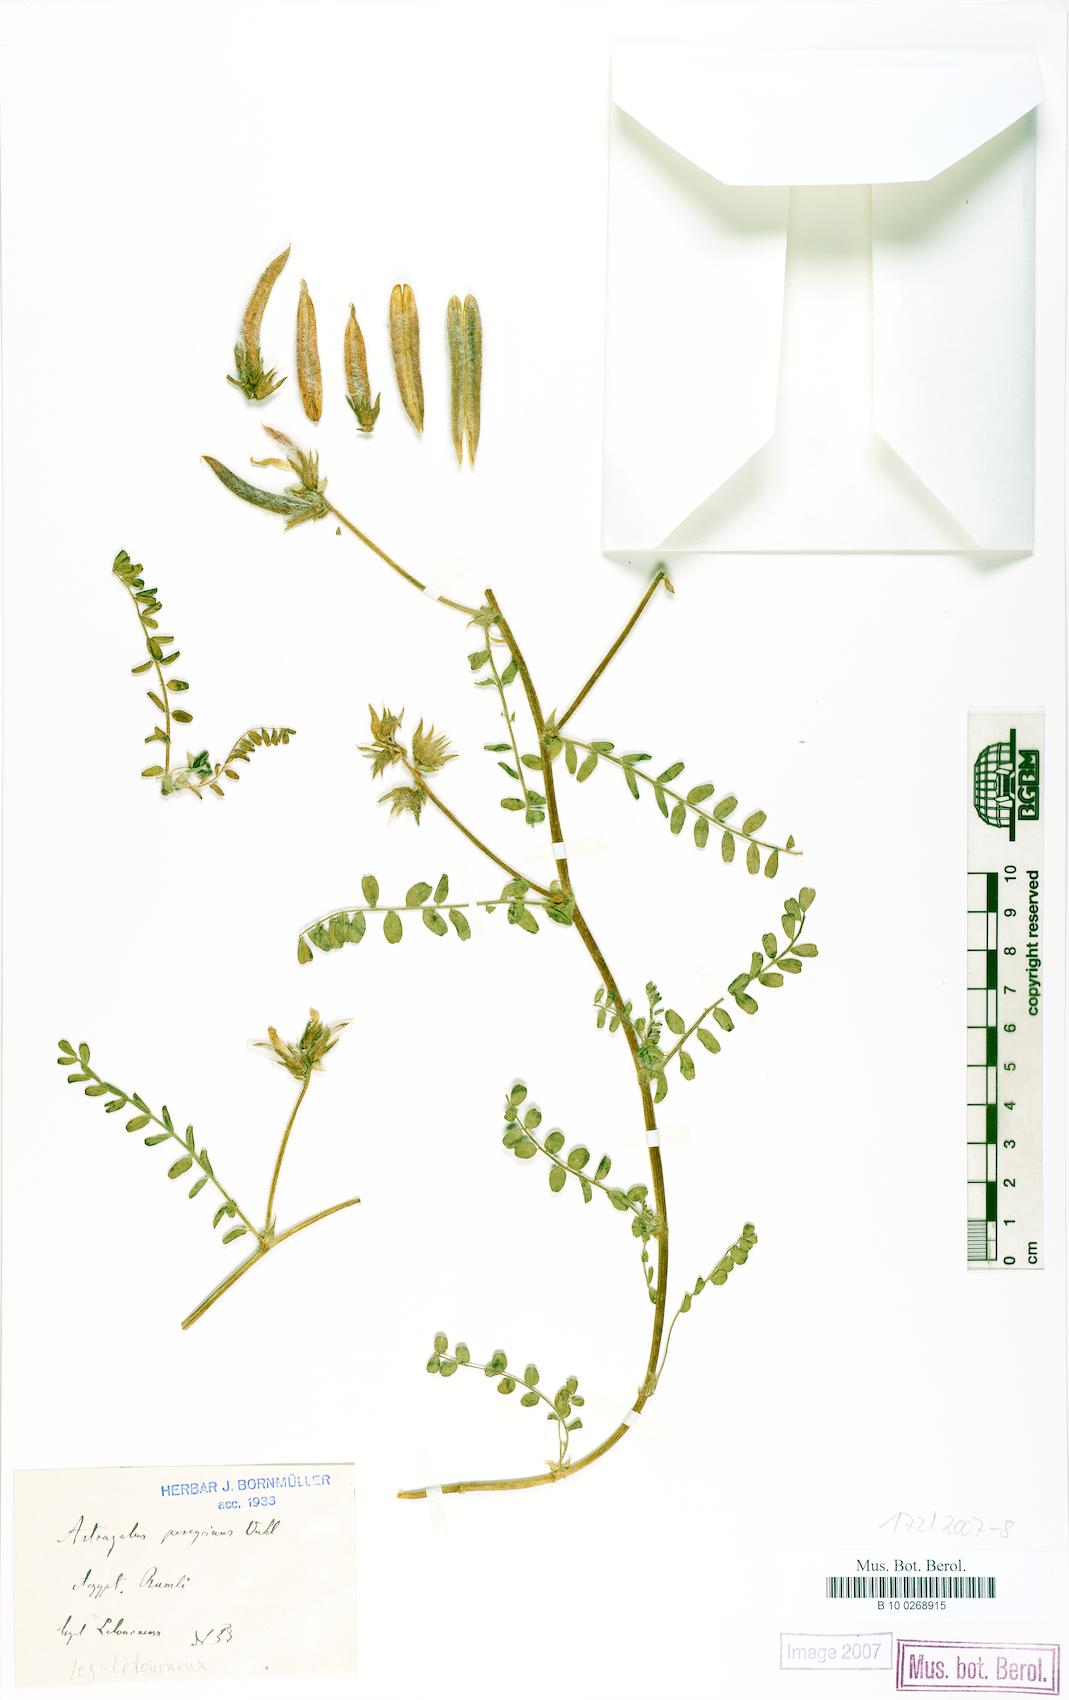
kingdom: Plantae
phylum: Tracheophyta
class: Magnoliopsida
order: Fabales
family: Fabaceae
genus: Astragalus
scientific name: Astragalus peregrinus
